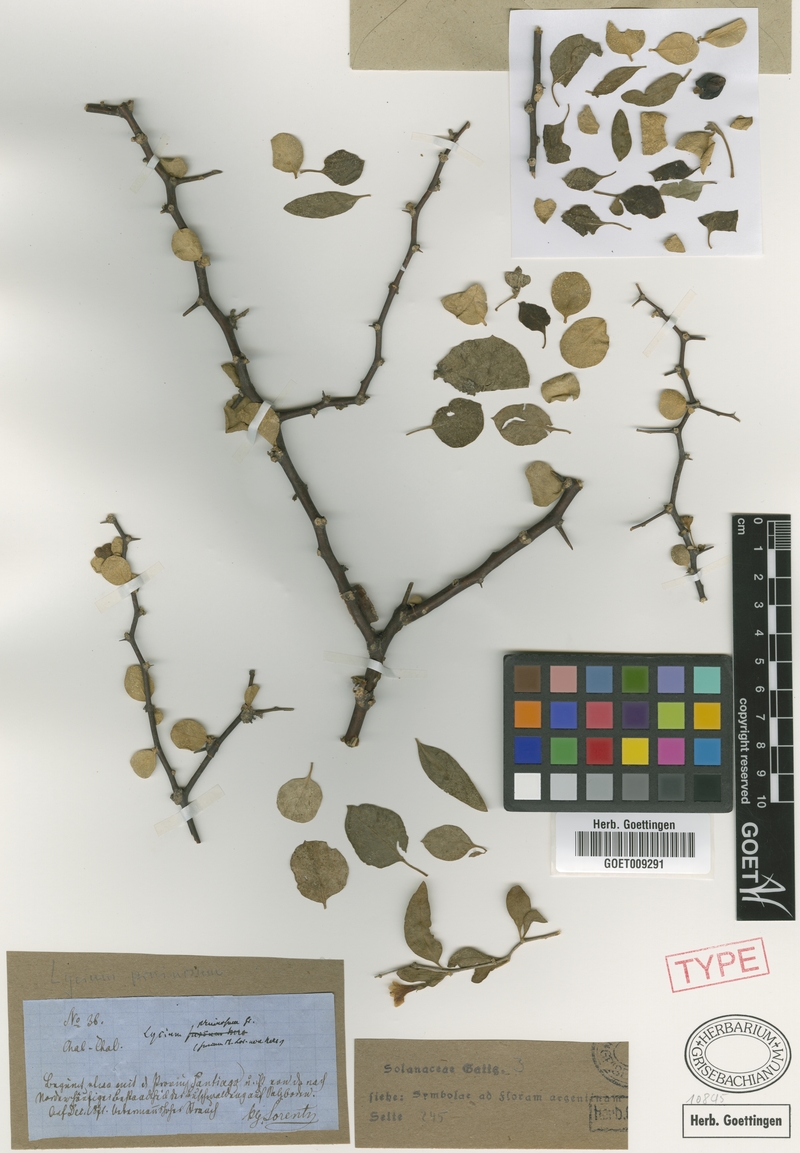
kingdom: Plantae
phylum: Tracheophyta
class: Magnoliopsida
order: Solanales
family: Solanaceae
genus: Lycium
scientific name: Lycium americanum
